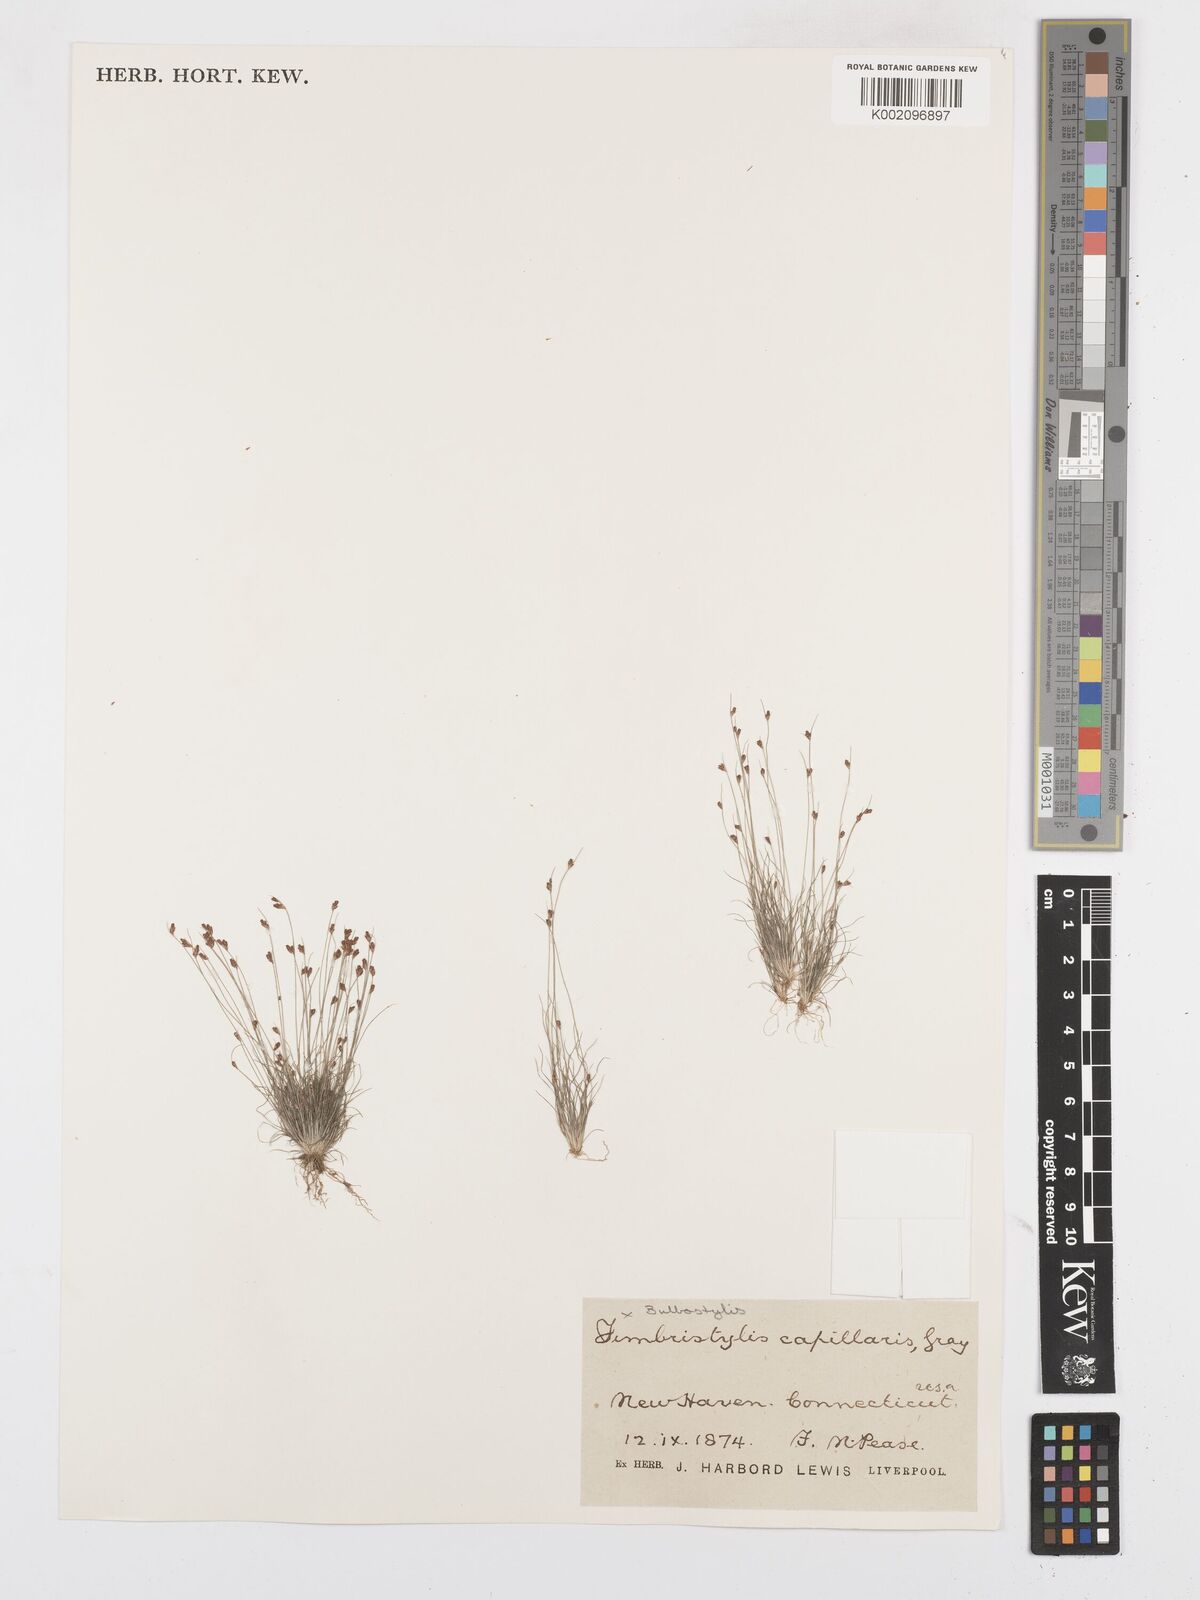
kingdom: Plantae
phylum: Tracheophyta
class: Liliopsida
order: Poales
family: Cyperaceae
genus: Bulbostylis
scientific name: Bulbostylis capillaris
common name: Densetuft hairsedge
